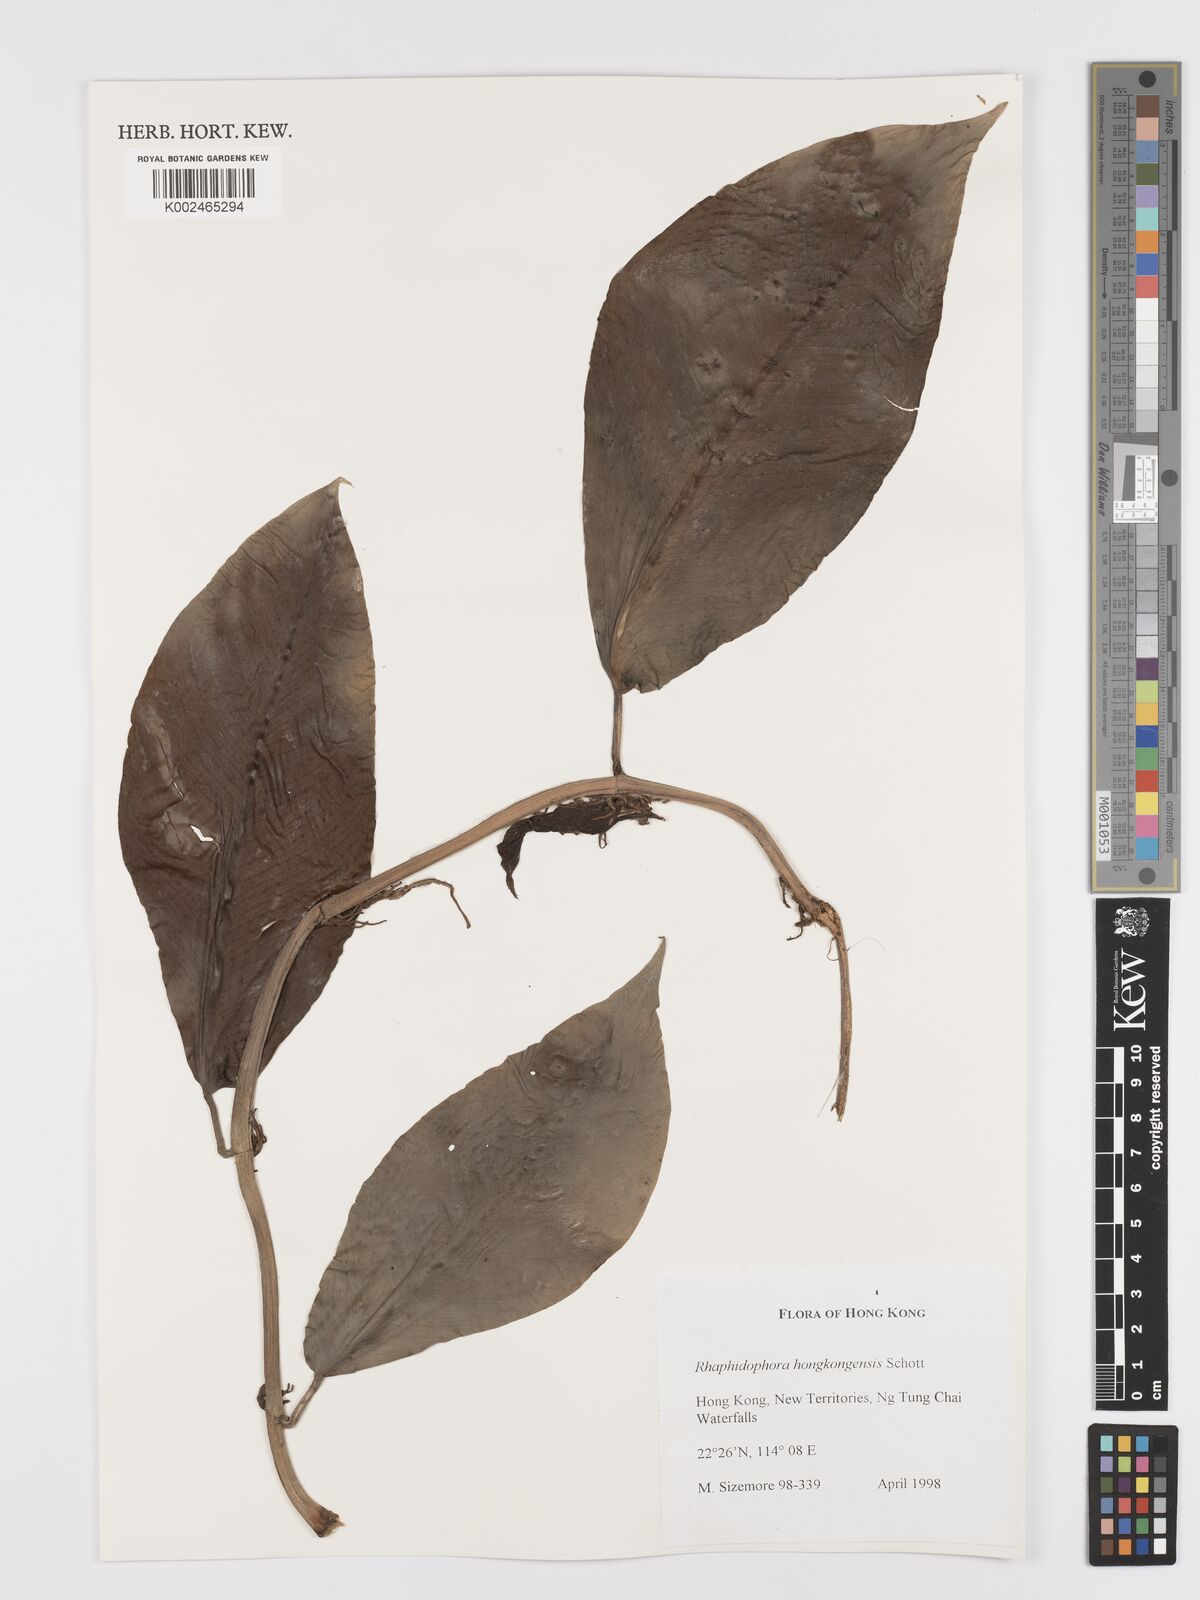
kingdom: Plantae
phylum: Tracheophyta
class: Liliopsida
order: Alismatales
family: Araceae
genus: Rhaphidophora
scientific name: Rhaphidophora hongkongensis
